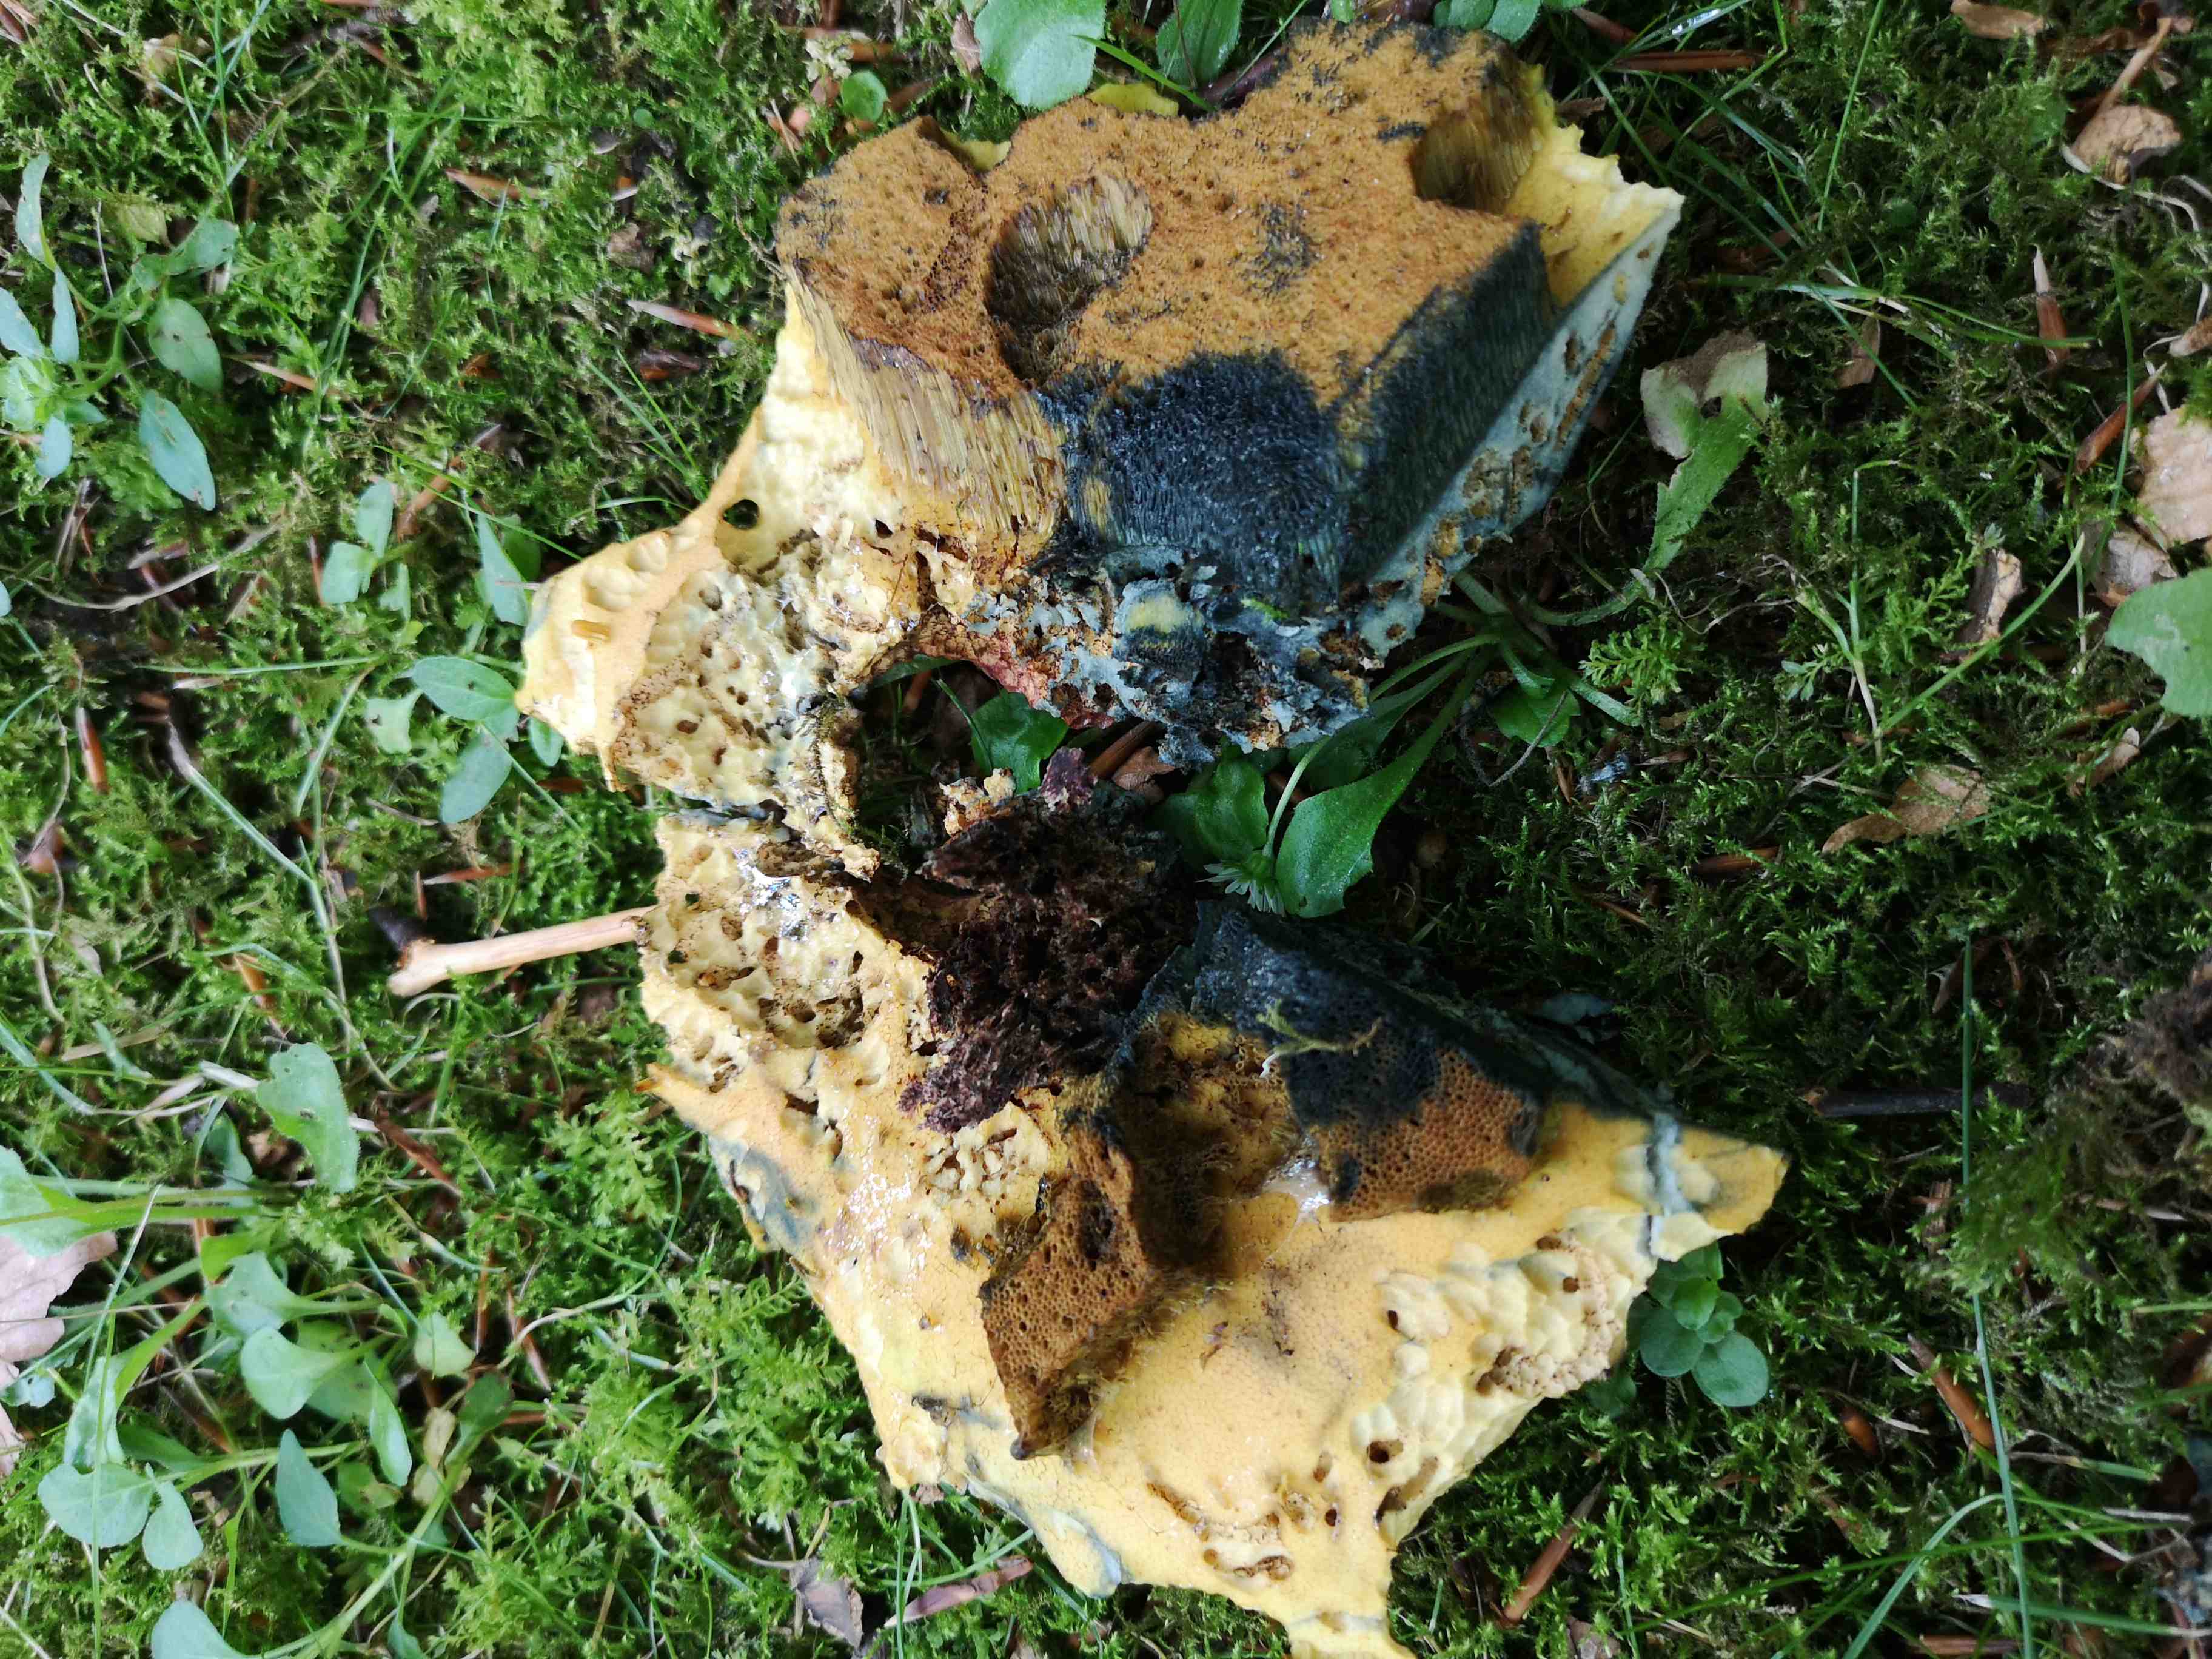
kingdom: Fungi
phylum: Basidiomycota
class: Agaricomycetes
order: Boletales
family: Boletaceae
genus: Suillellus
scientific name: Suillellus luridus
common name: netstokket indigorørhat
